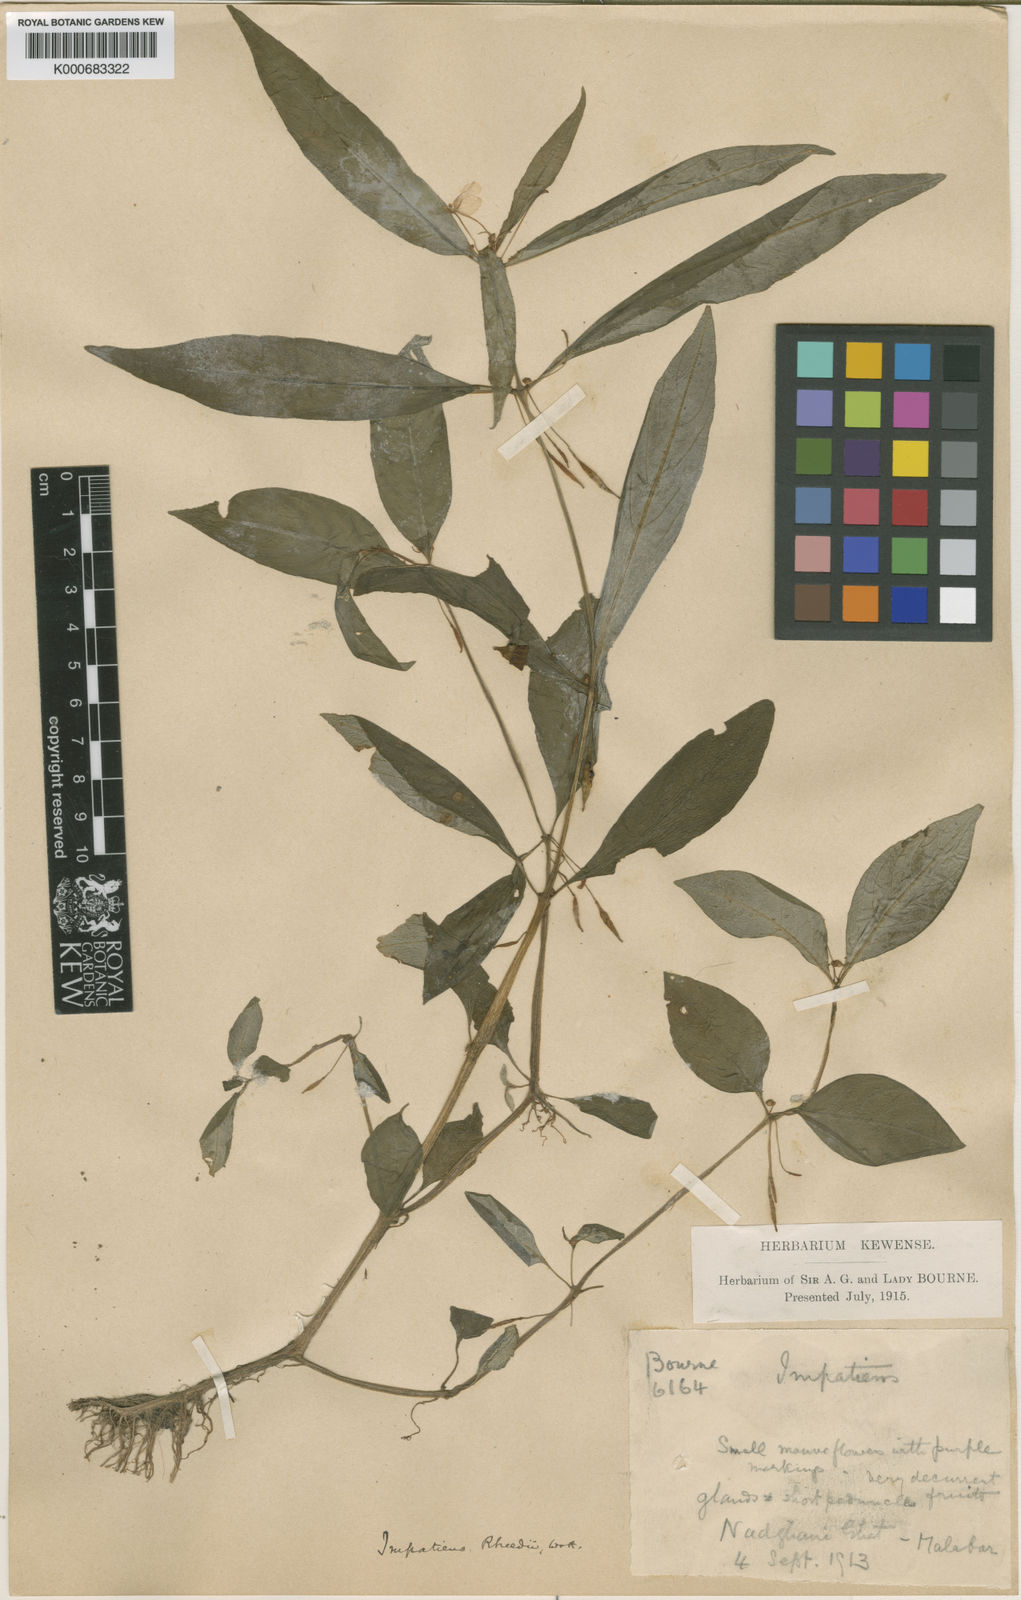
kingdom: Plantae
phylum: Tracheophyta
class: Magnoliopsida
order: Ericales
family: Balsaminaceae
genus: Impatiens
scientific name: Impatiens minor
